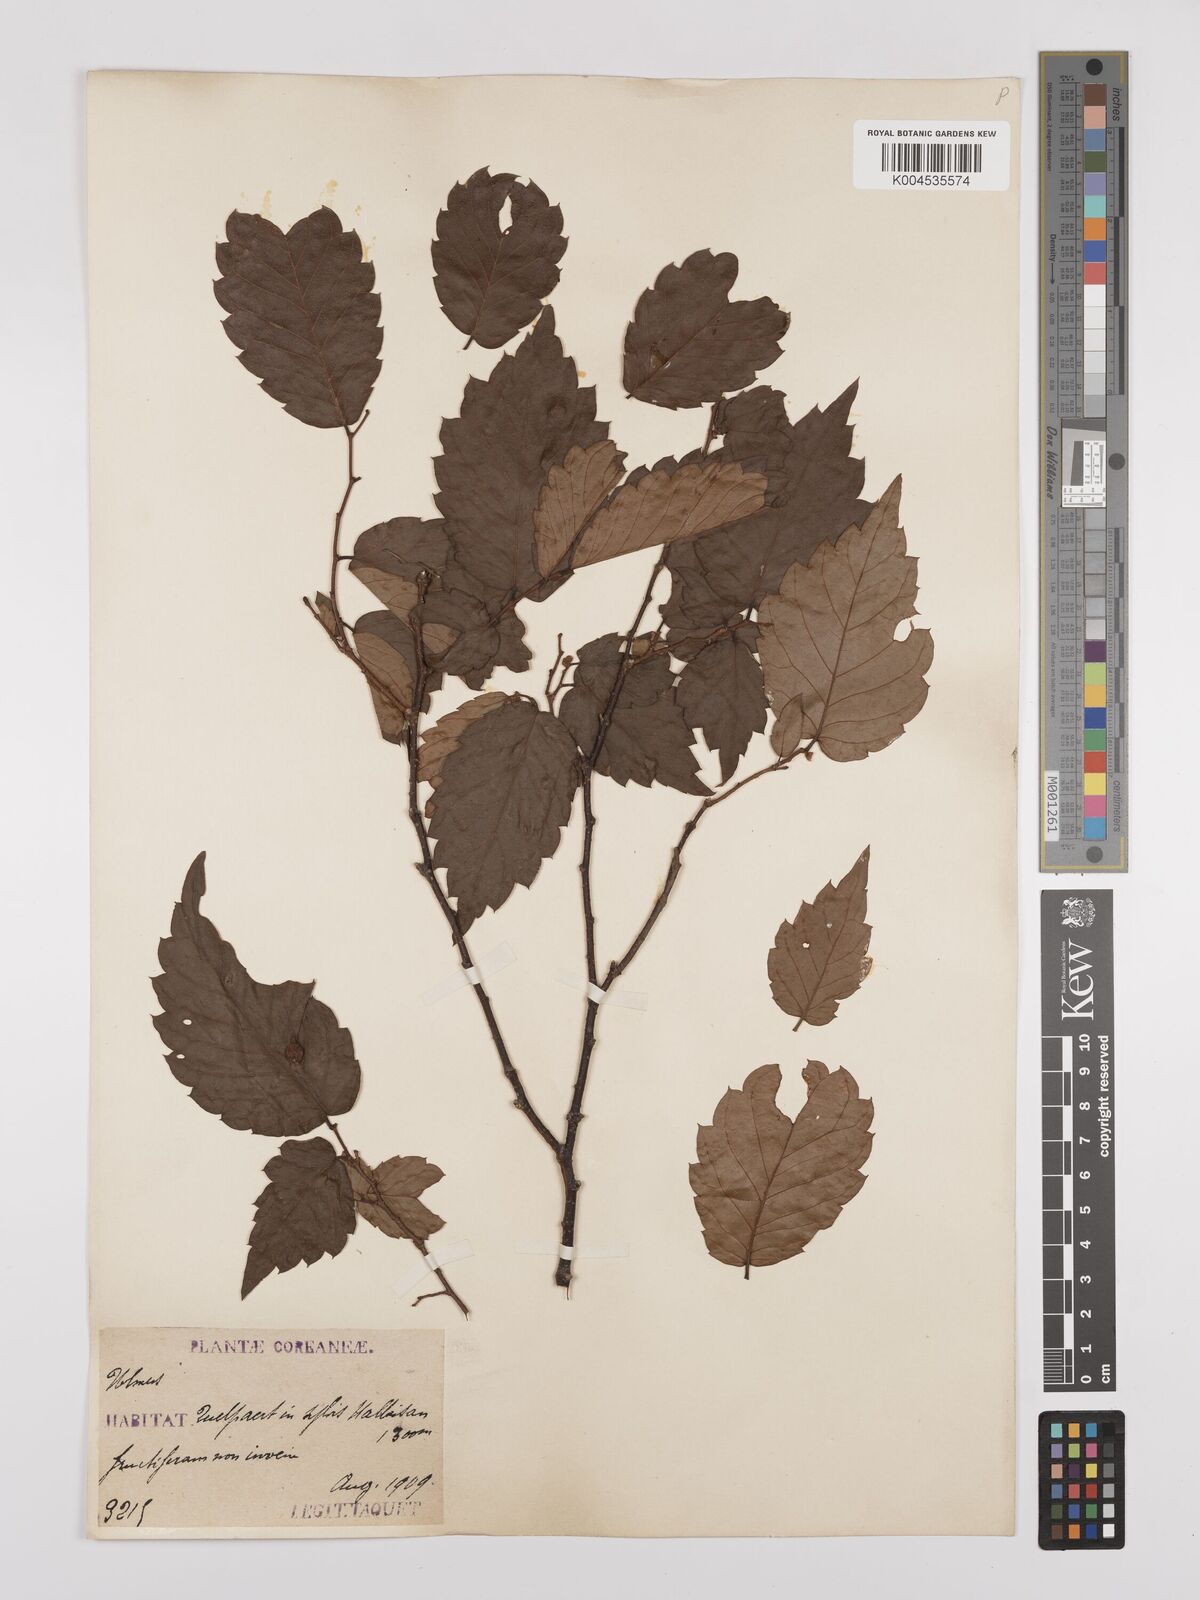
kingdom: Plantae
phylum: Tracheophyta
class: Magnoliopsida
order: Rosales
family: Ulmaceae
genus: Zelkova
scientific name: Zelkova
